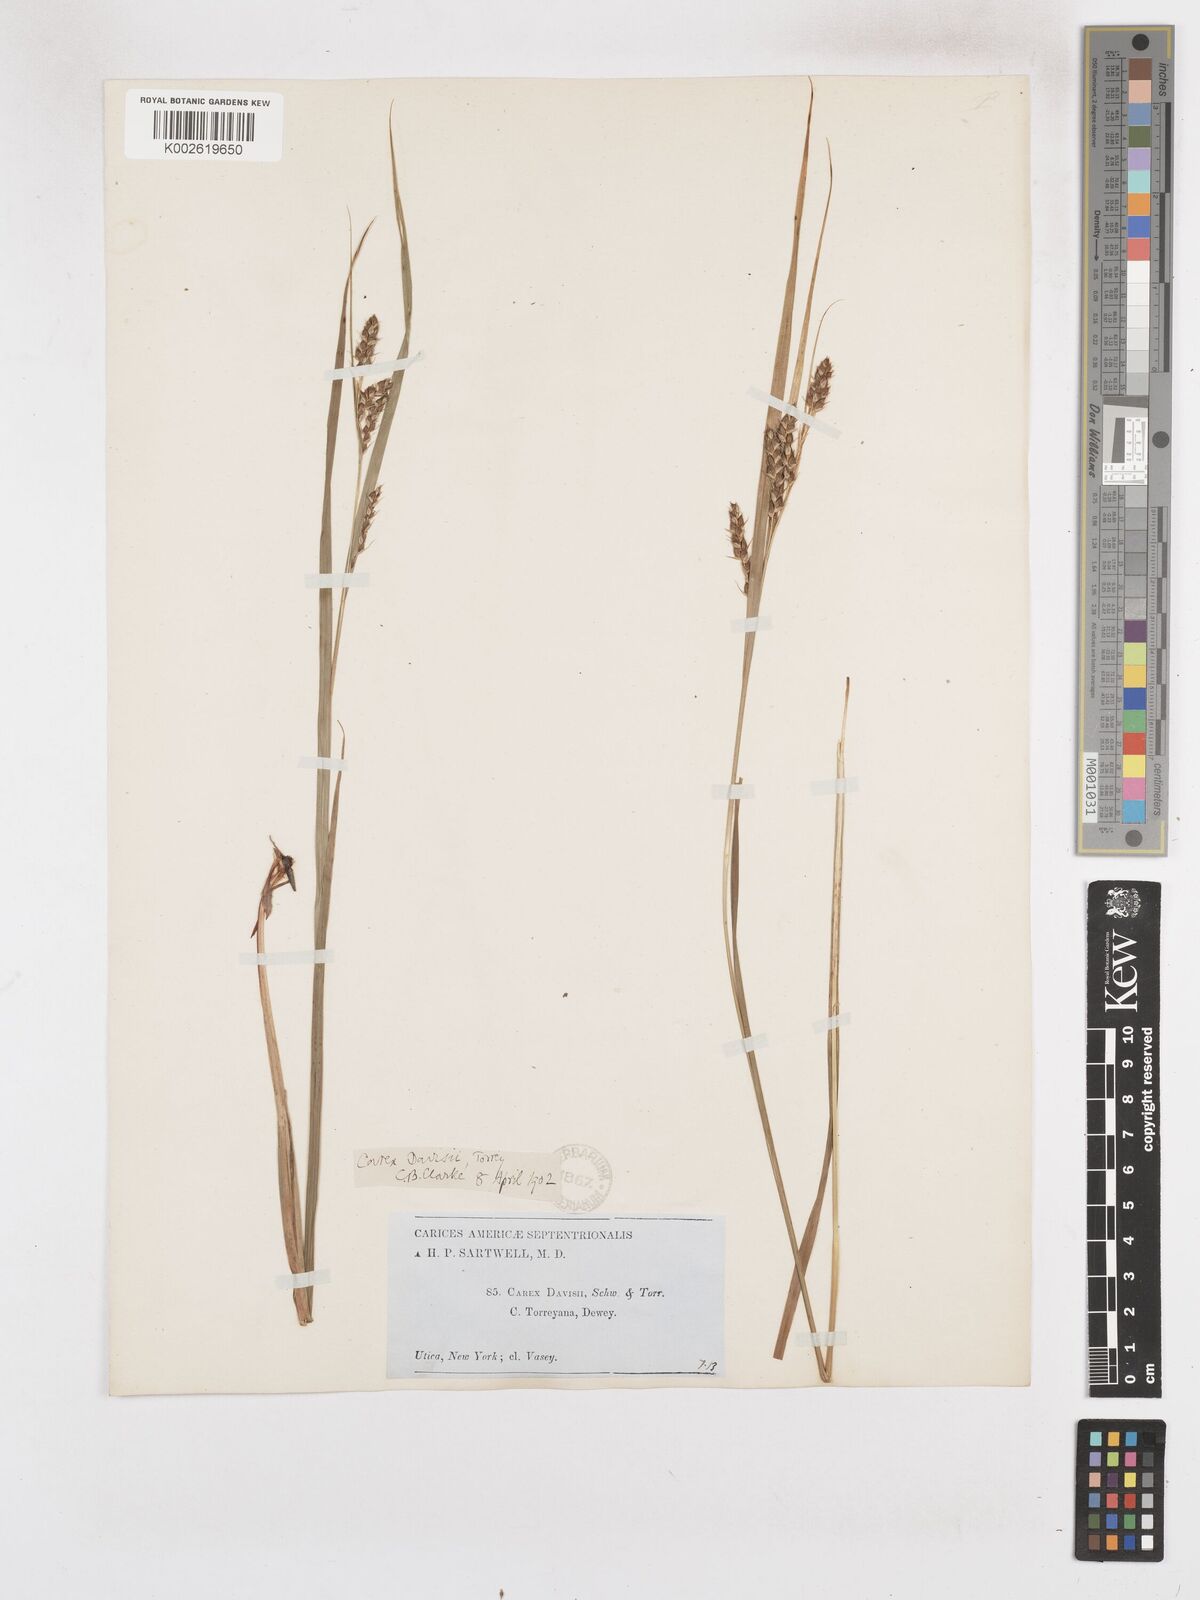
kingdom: Plantae
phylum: Tracheophyta
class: Liliopsida
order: Poales
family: Cyperaceae
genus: Carex
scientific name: Carex davisii
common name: Davis' sedge
